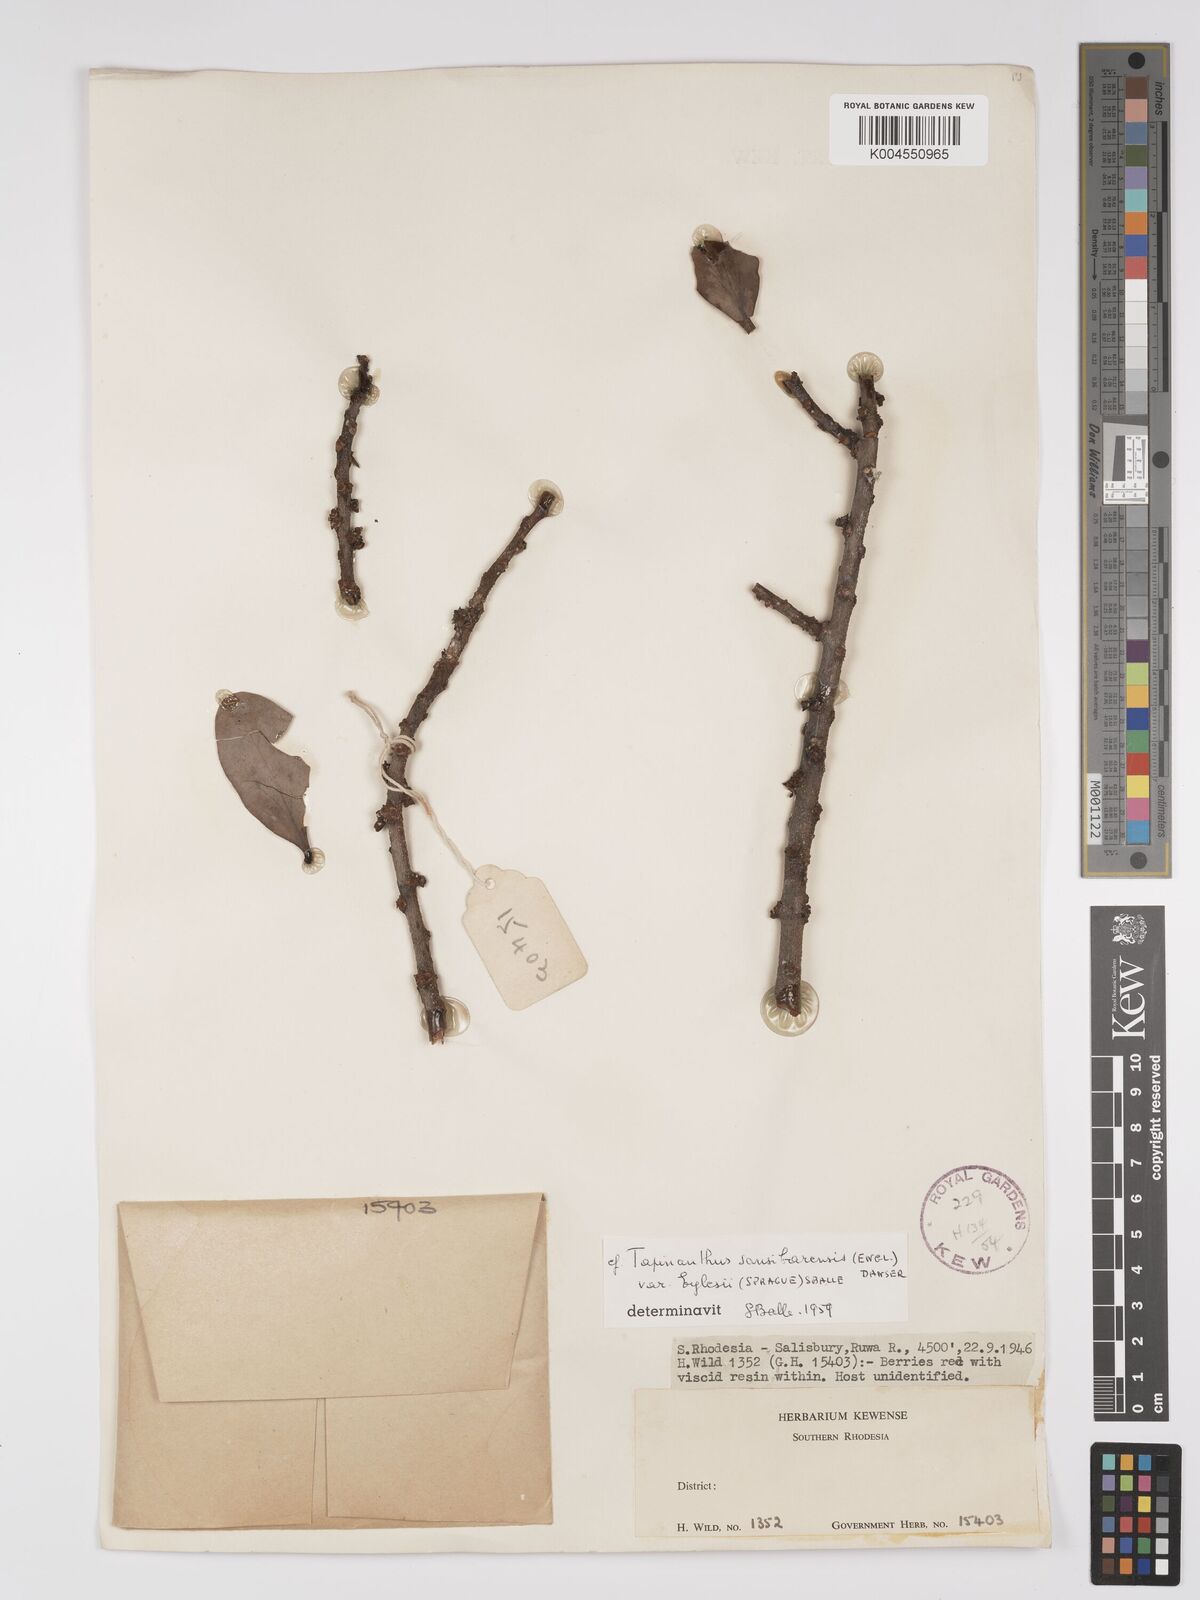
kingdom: Plantae
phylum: Tracheophyta
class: Magnoliopsida
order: Santalales
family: Loranthaceae
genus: Agelanthus
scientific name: Agelanthus fuellebornii
